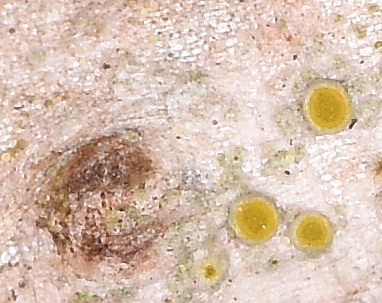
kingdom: Fungi
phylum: Ascomycota
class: Lecanoromycetes
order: Teloschistales
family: Teloschistaceae
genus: Athallia
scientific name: Athallia cerinella
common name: kvist-orangelav
